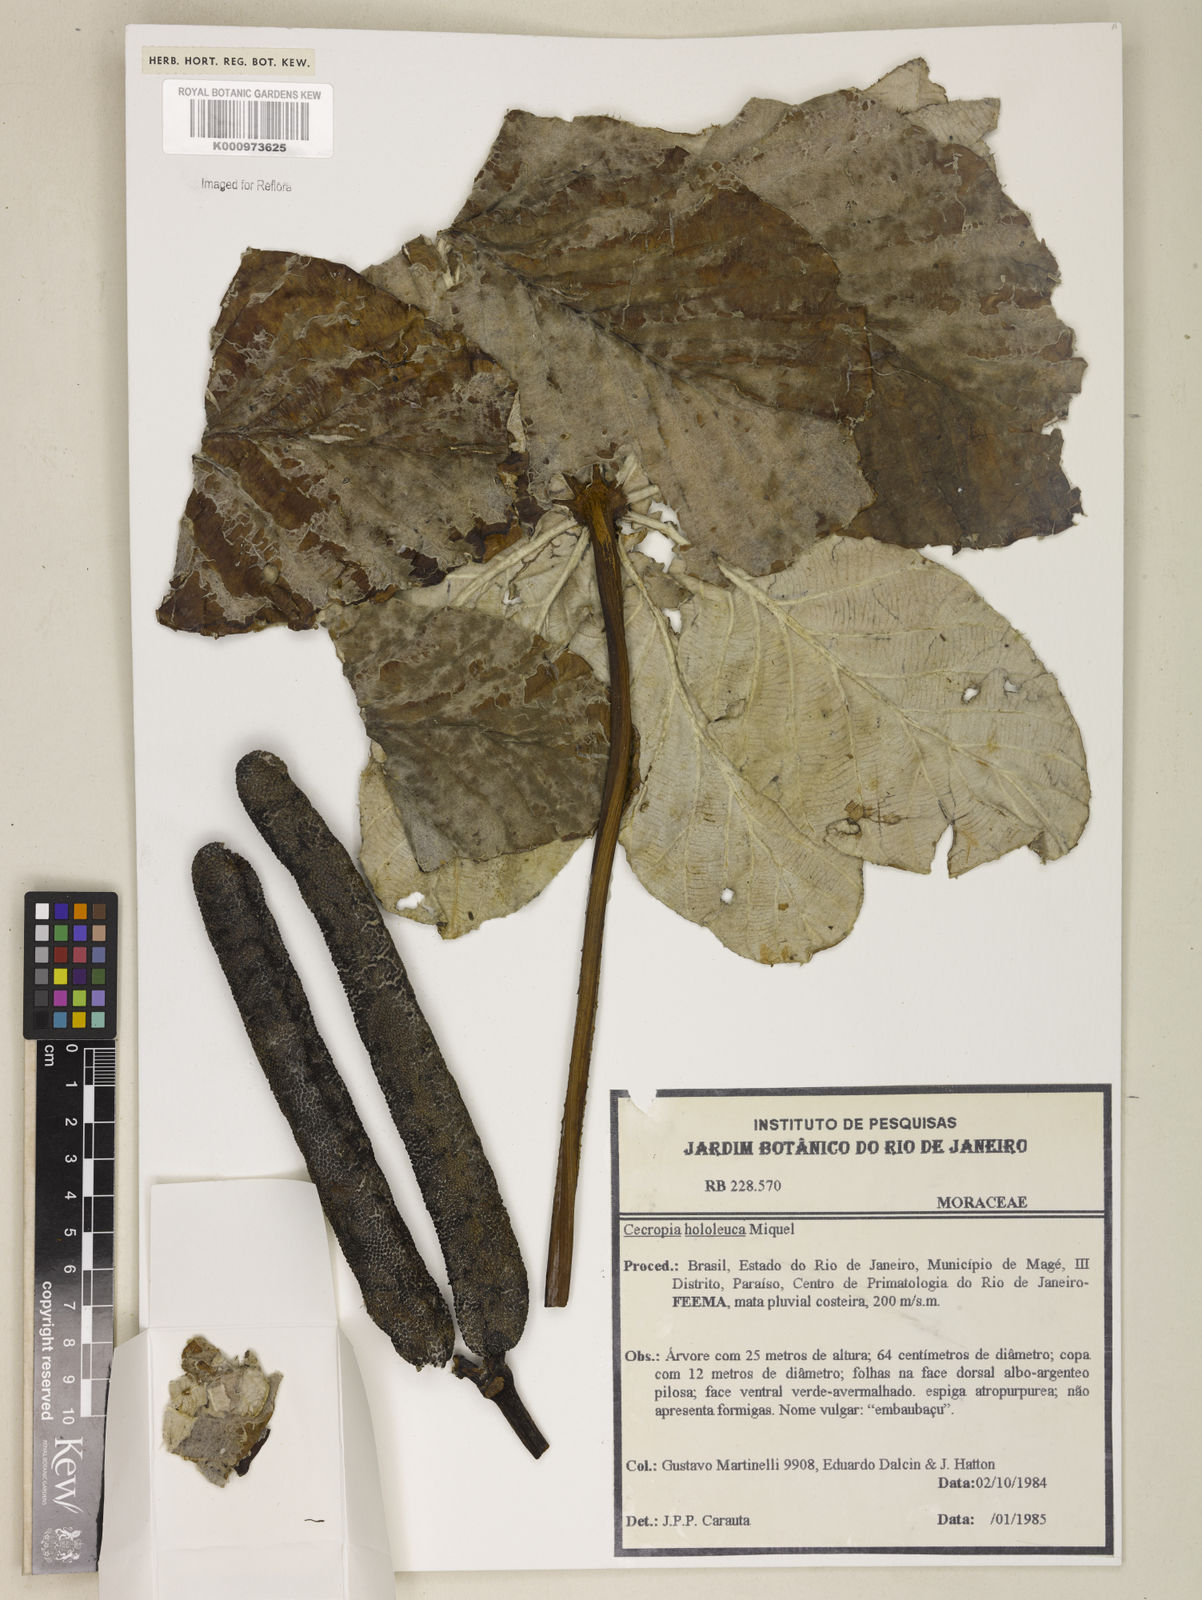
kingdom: Plantae
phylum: Tracheophyta
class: Magnoliopsida
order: Rosales
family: Urticaceae
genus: Cecropia
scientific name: Cecropia hololeuca
